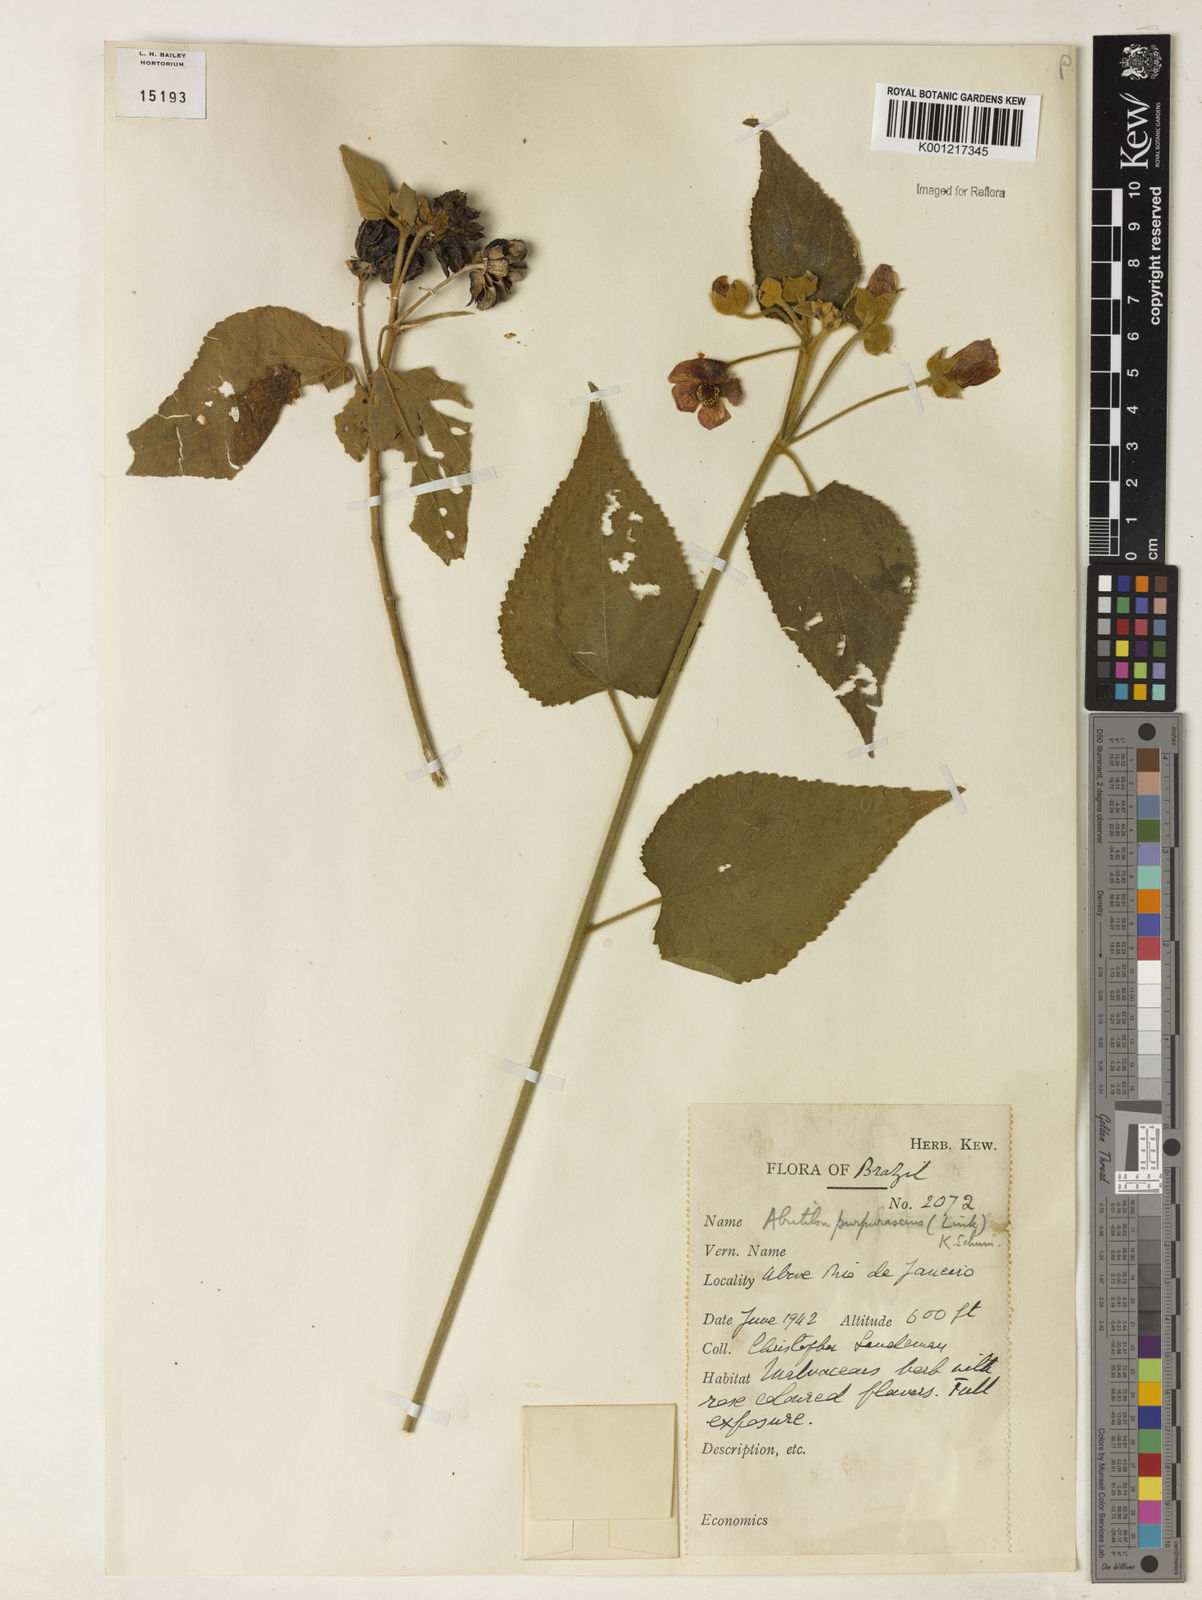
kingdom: Plantae
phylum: Tracheophyta
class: Magnoliopsida
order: Malvales
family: Malvaceae
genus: Bakeridesia
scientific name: Bakeridesia esculenta
